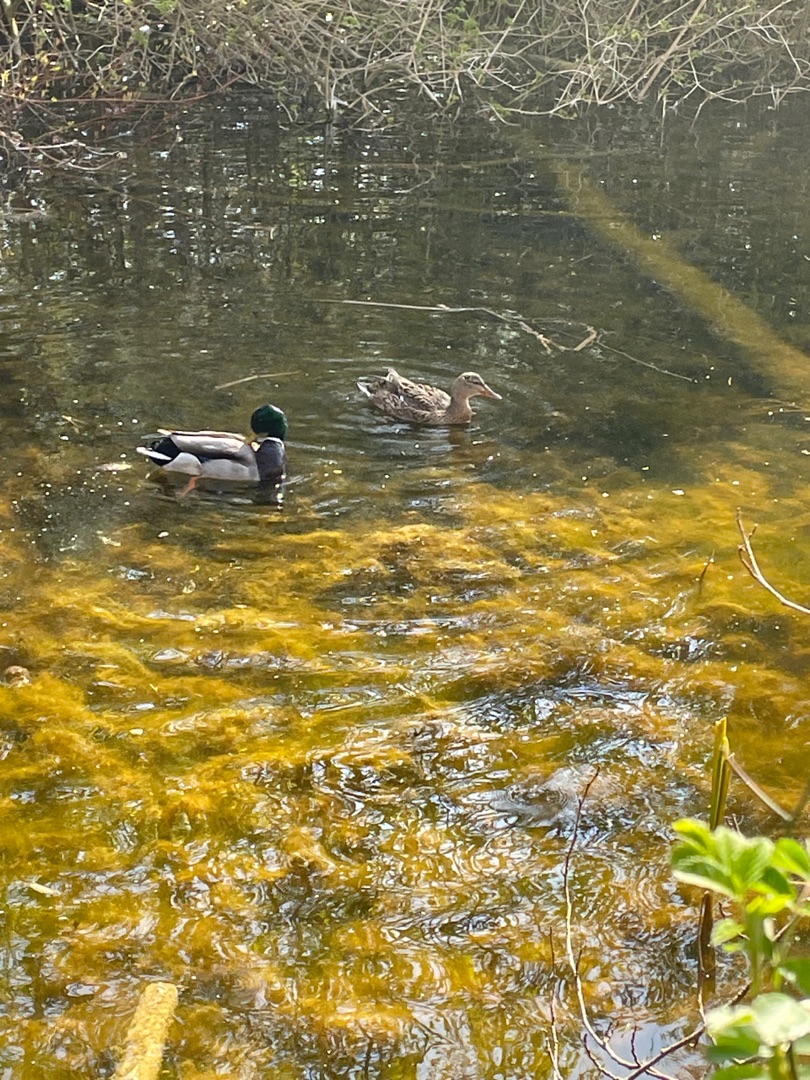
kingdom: Animalia
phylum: Chordata
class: Aves
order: Anseriformes
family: Anatidae
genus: Anas
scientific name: Anas platyrhynchos
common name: Gråand
